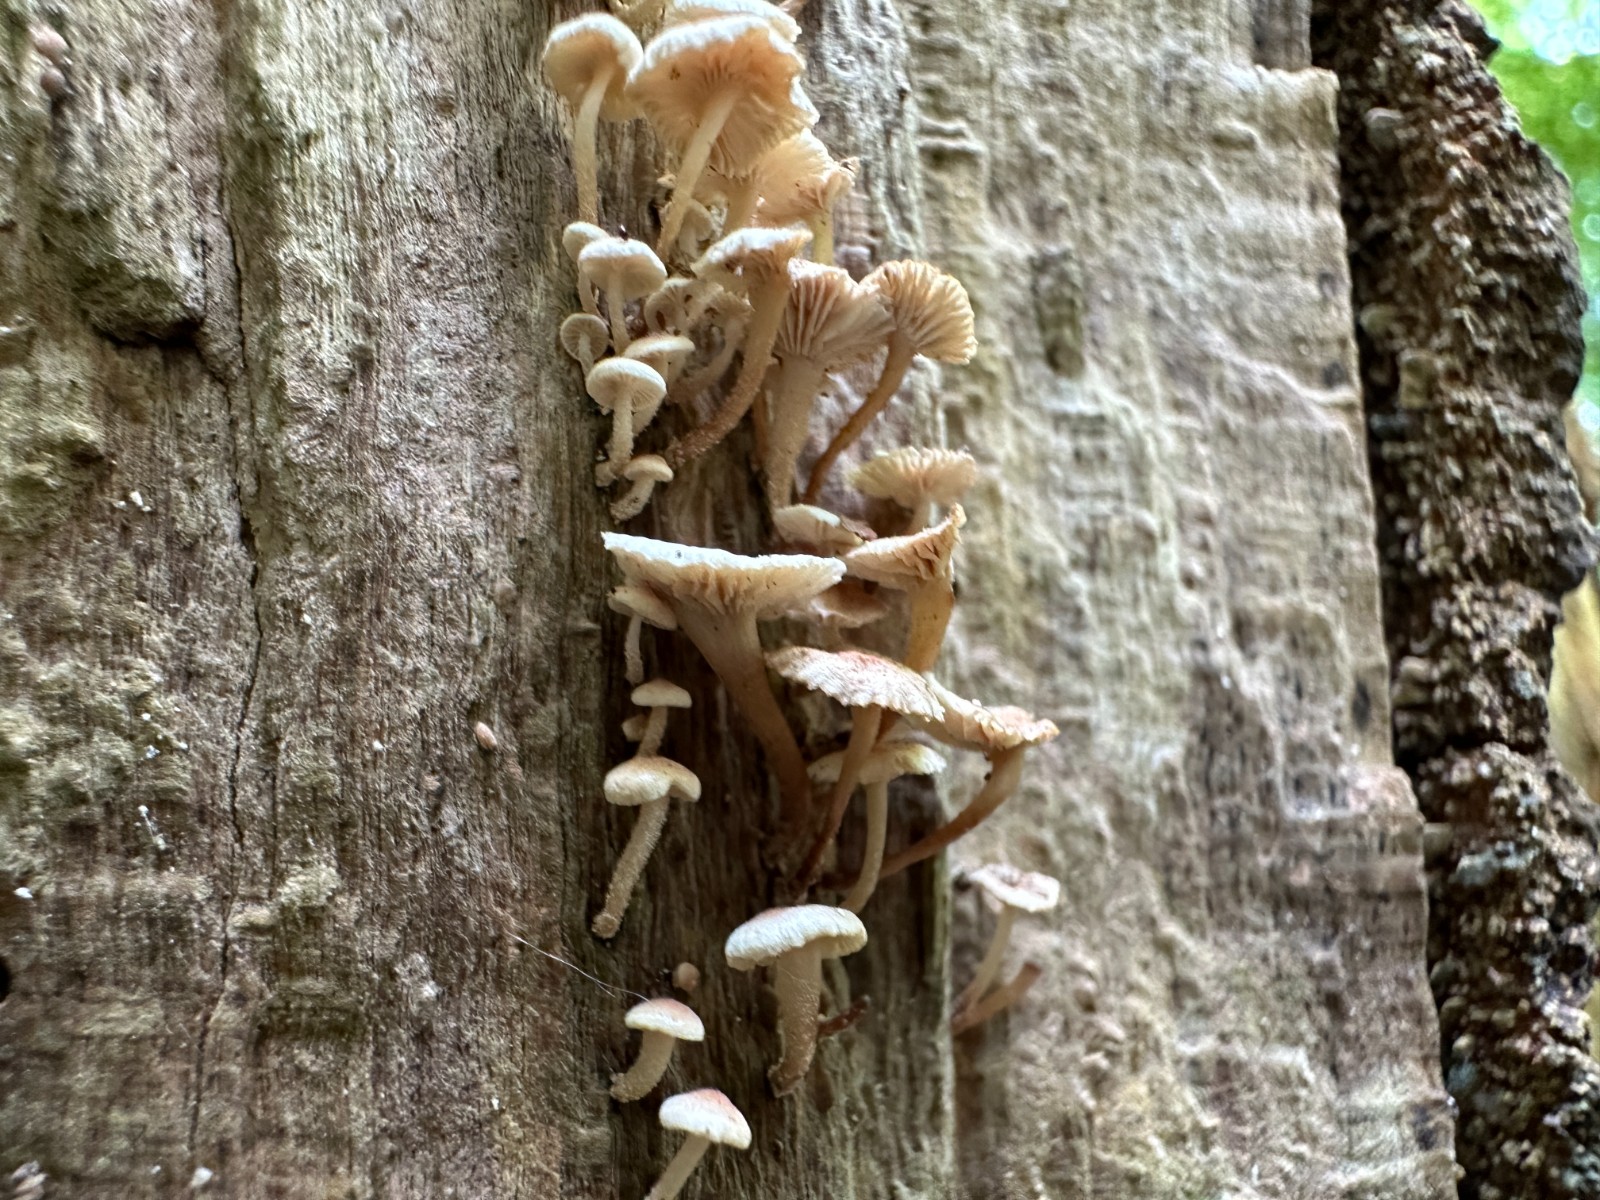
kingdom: Fungi
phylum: Basidiomycota
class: Agaricomycetes
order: Agaricales
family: Omphalotaceae
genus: Collybiopsis
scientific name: Collybiopsis ramealis
